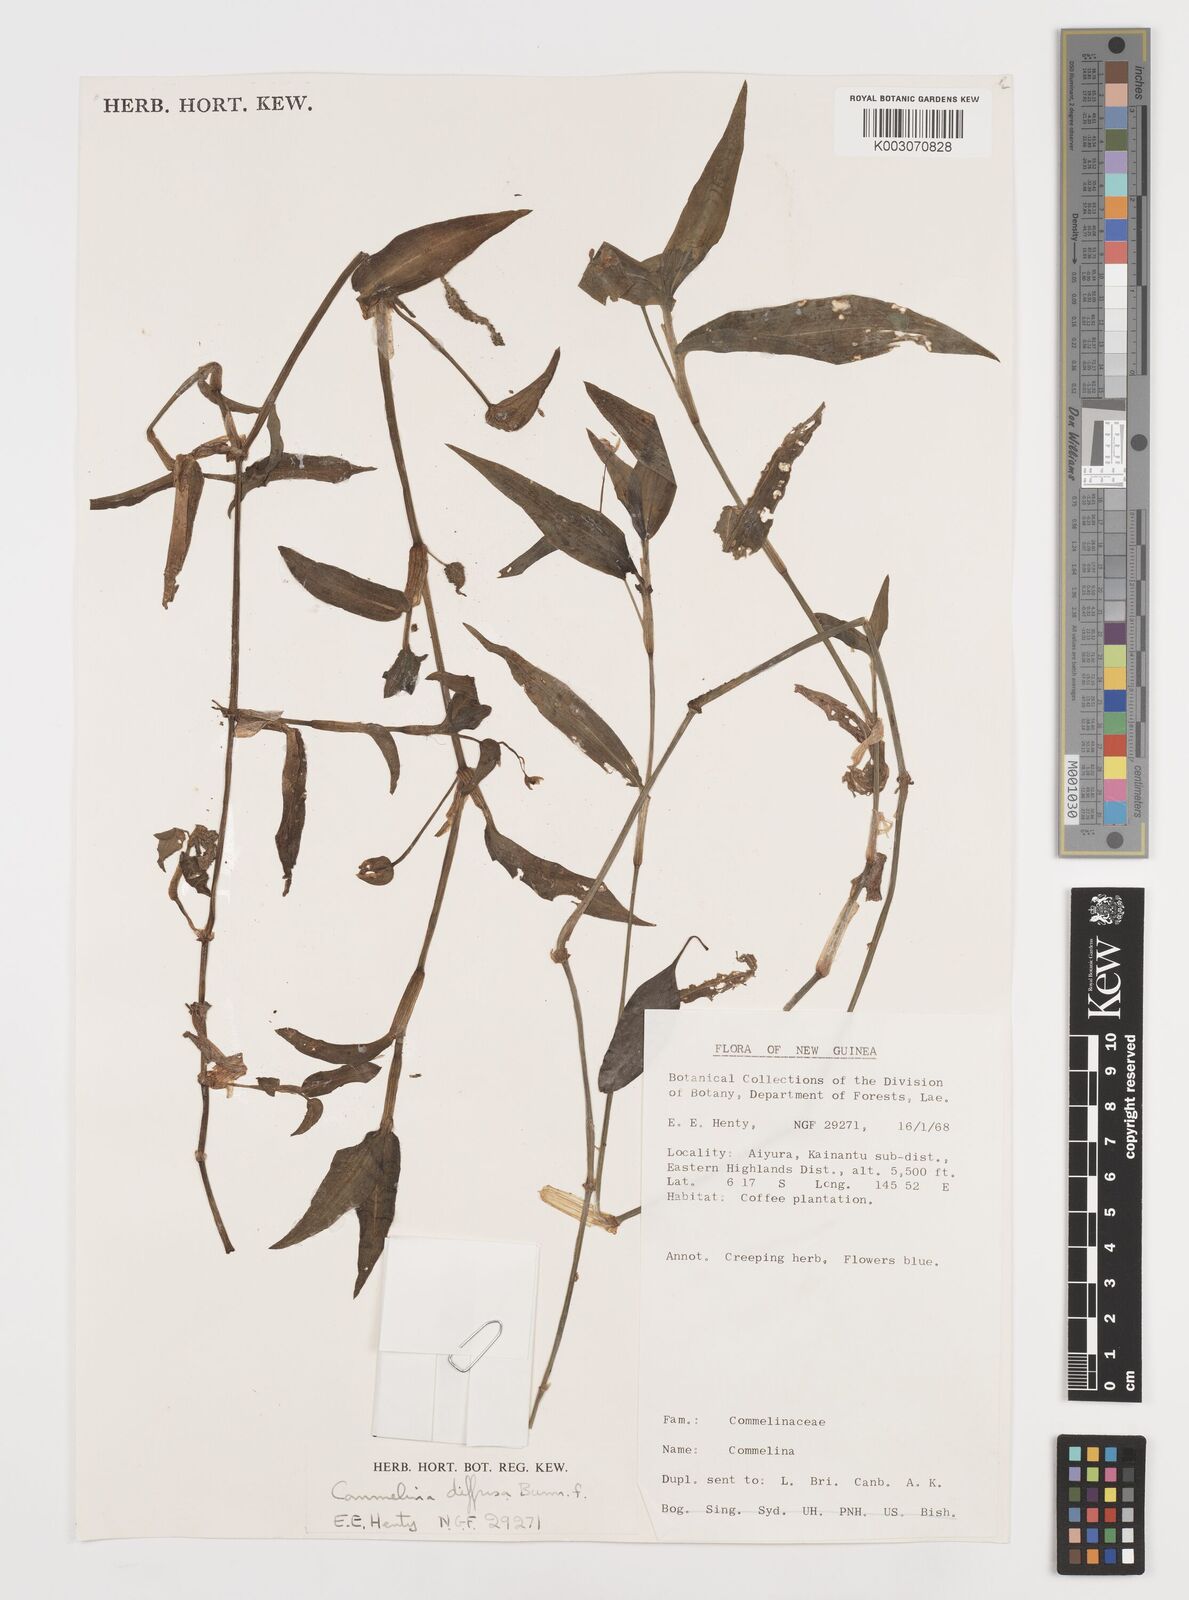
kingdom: Plantae
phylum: Tracheophyta
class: Liliopsida
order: Commelinales
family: Commelinaceae
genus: Commelina
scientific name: Commelina diffusa
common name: Climbing dayflower
